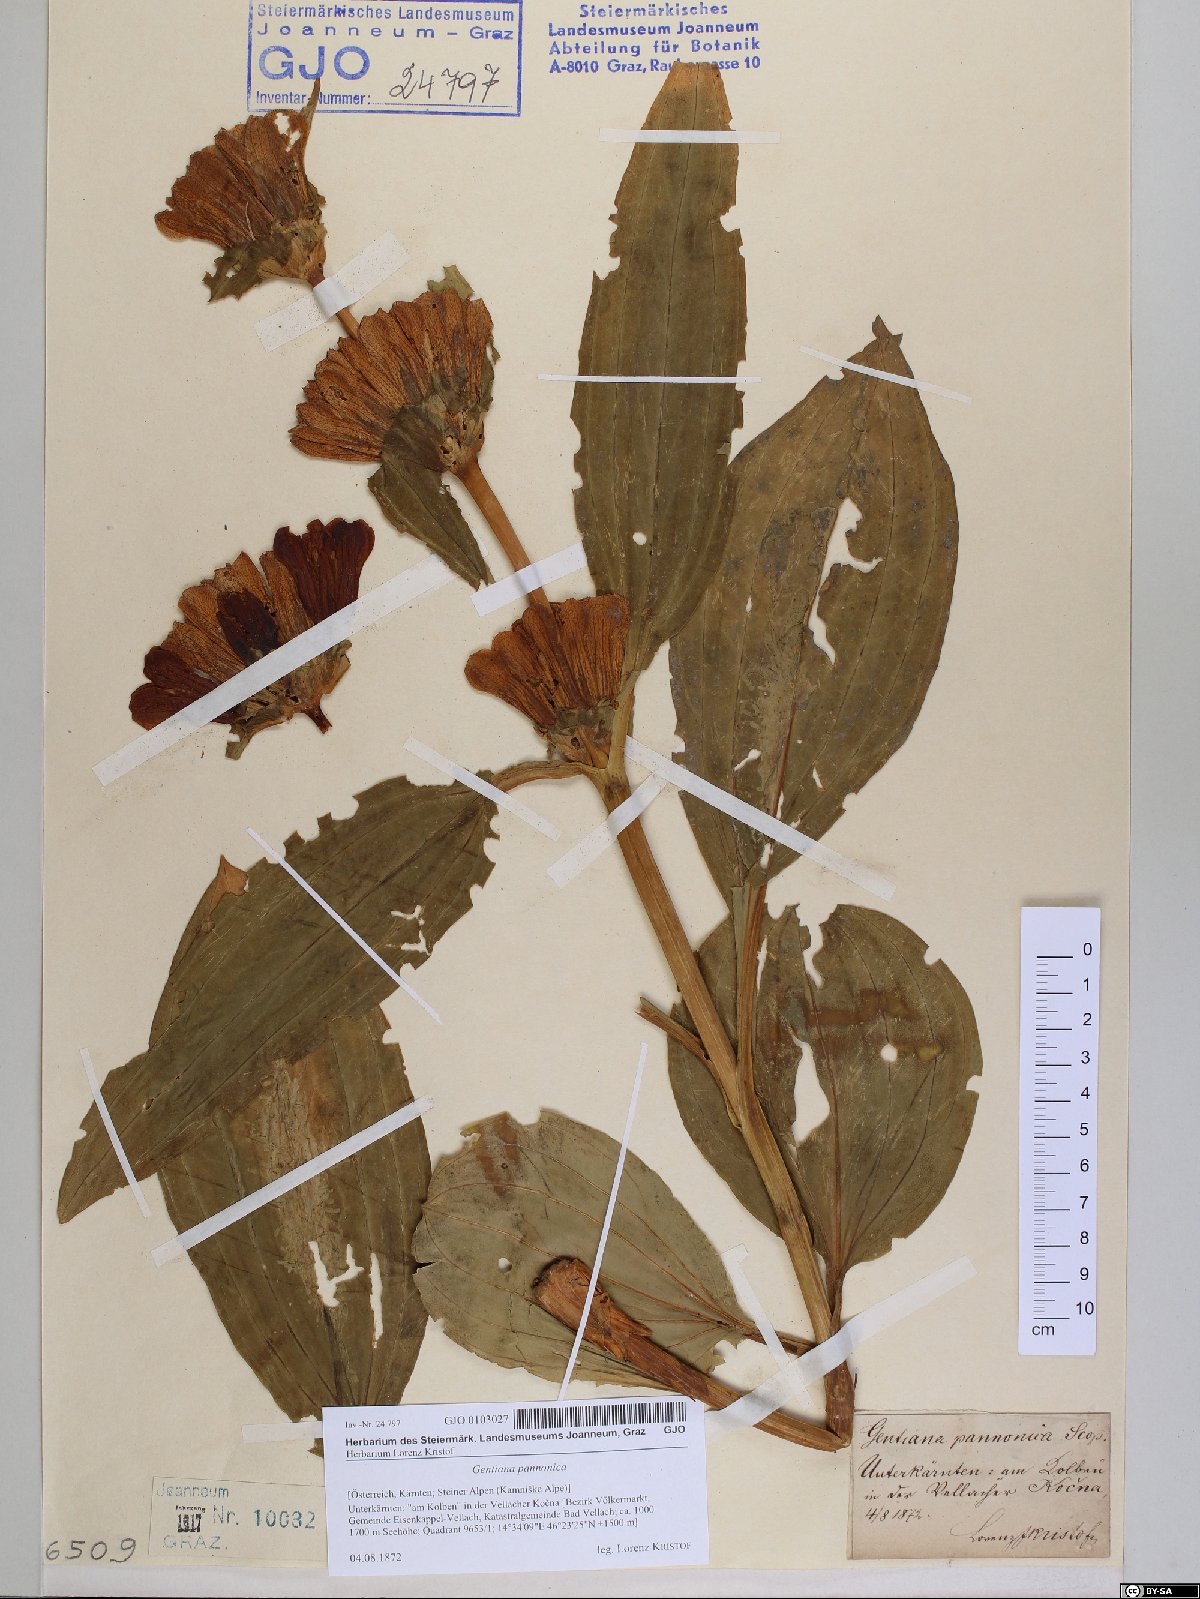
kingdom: Plantae
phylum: Tracheophyta
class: Magnoliopsida
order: Gentianales
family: Gentianaceae
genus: Gentiana
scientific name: Gentiana pannonica
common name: Hungarian gentian
